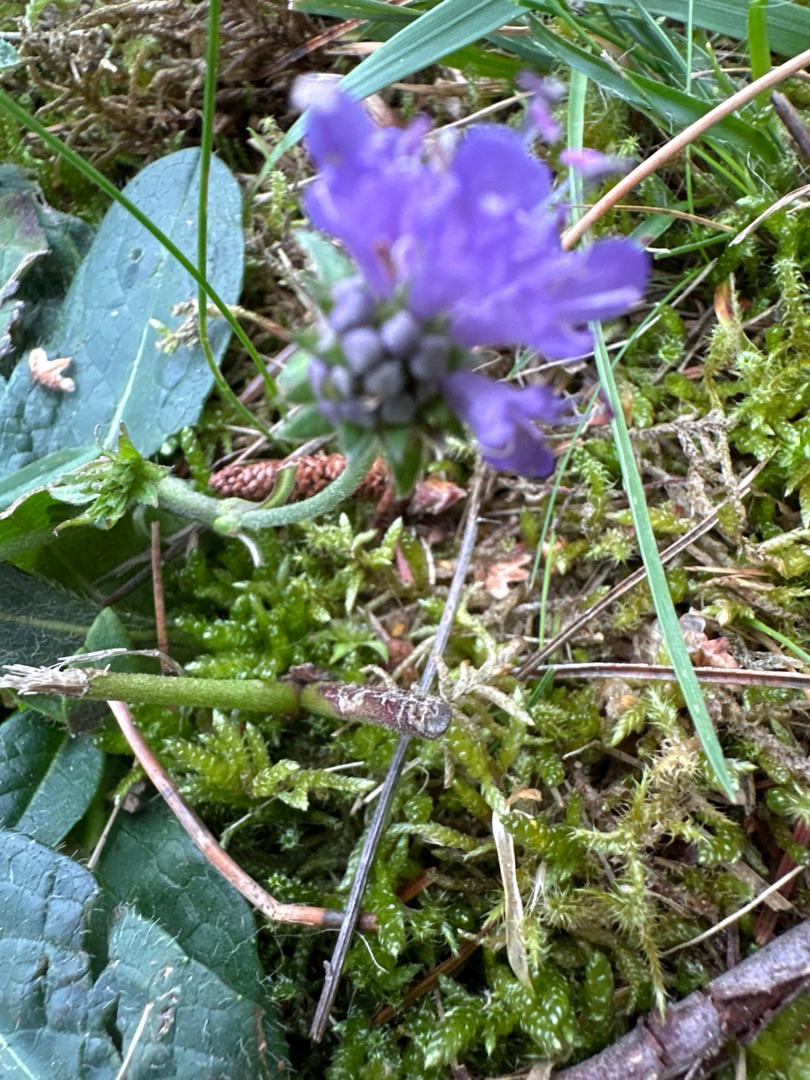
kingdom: Plantae
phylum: Tracheophyta
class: Magnoliopsida
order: Dipsacales
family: Caprifoliaceae
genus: Succisa
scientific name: Succisa pratensis
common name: Djævelsbid
